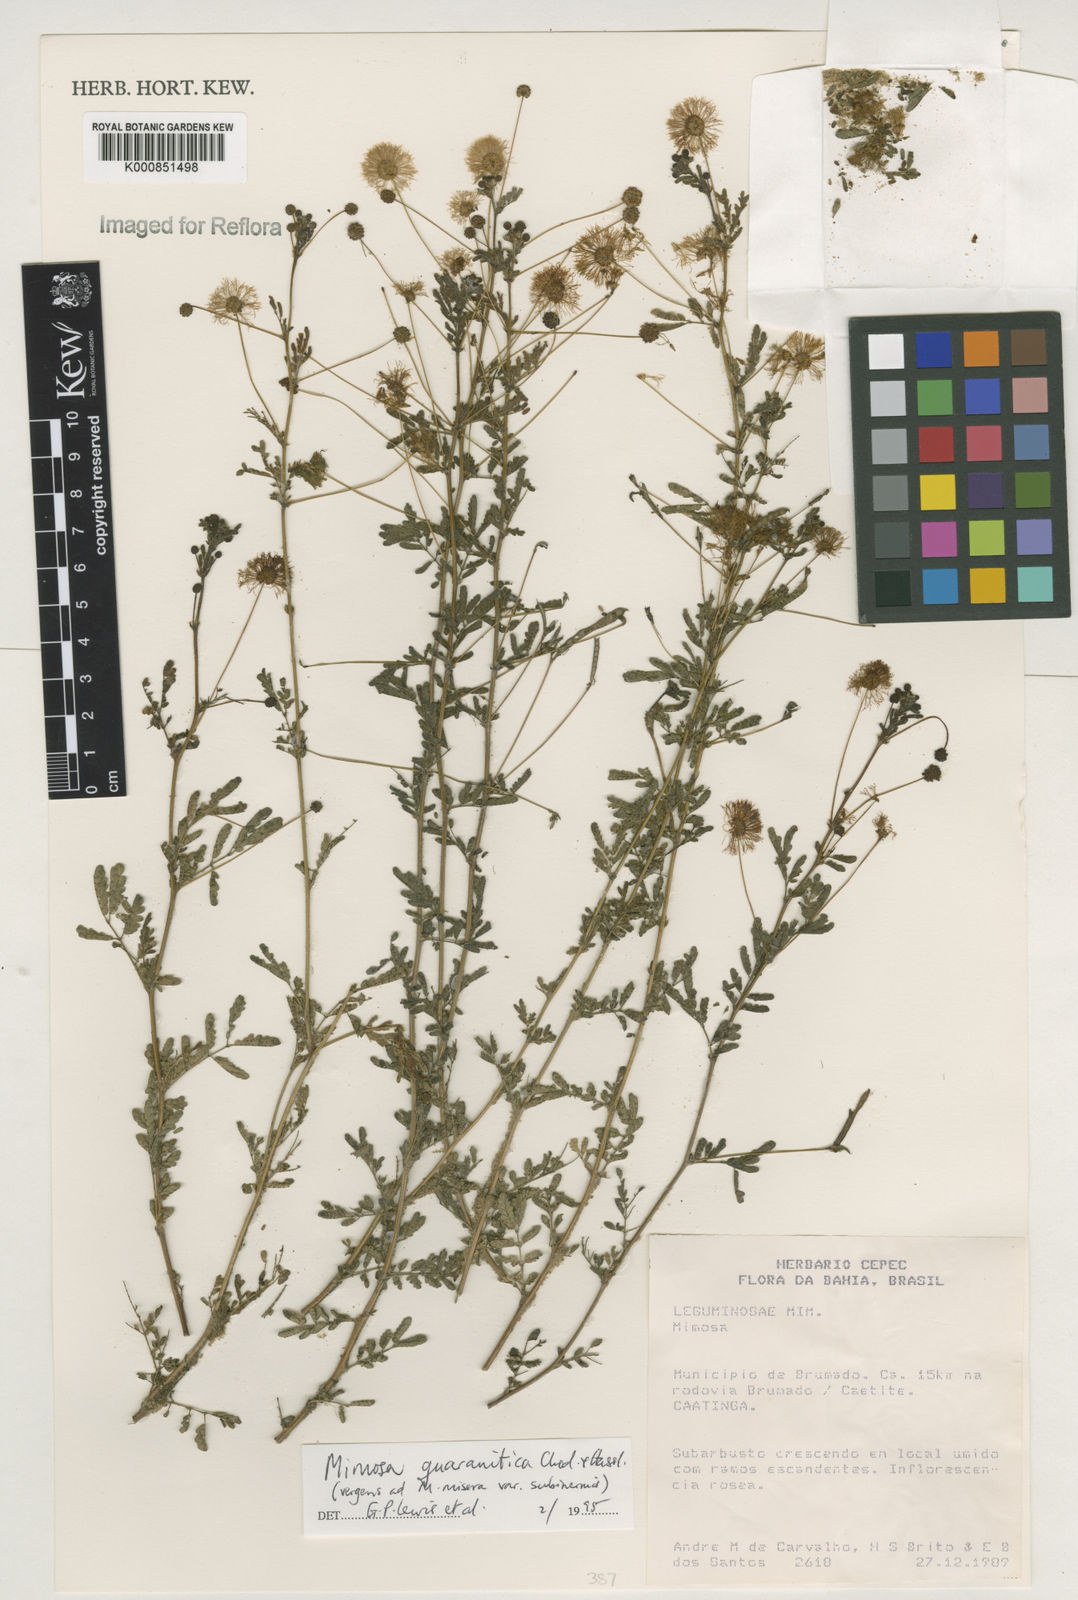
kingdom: Plantae
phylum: Tracheophyta
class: Magnoliopsida
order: Fabales
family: Fabaceae
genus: Mimosa
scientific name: Mimosa guaranitica
